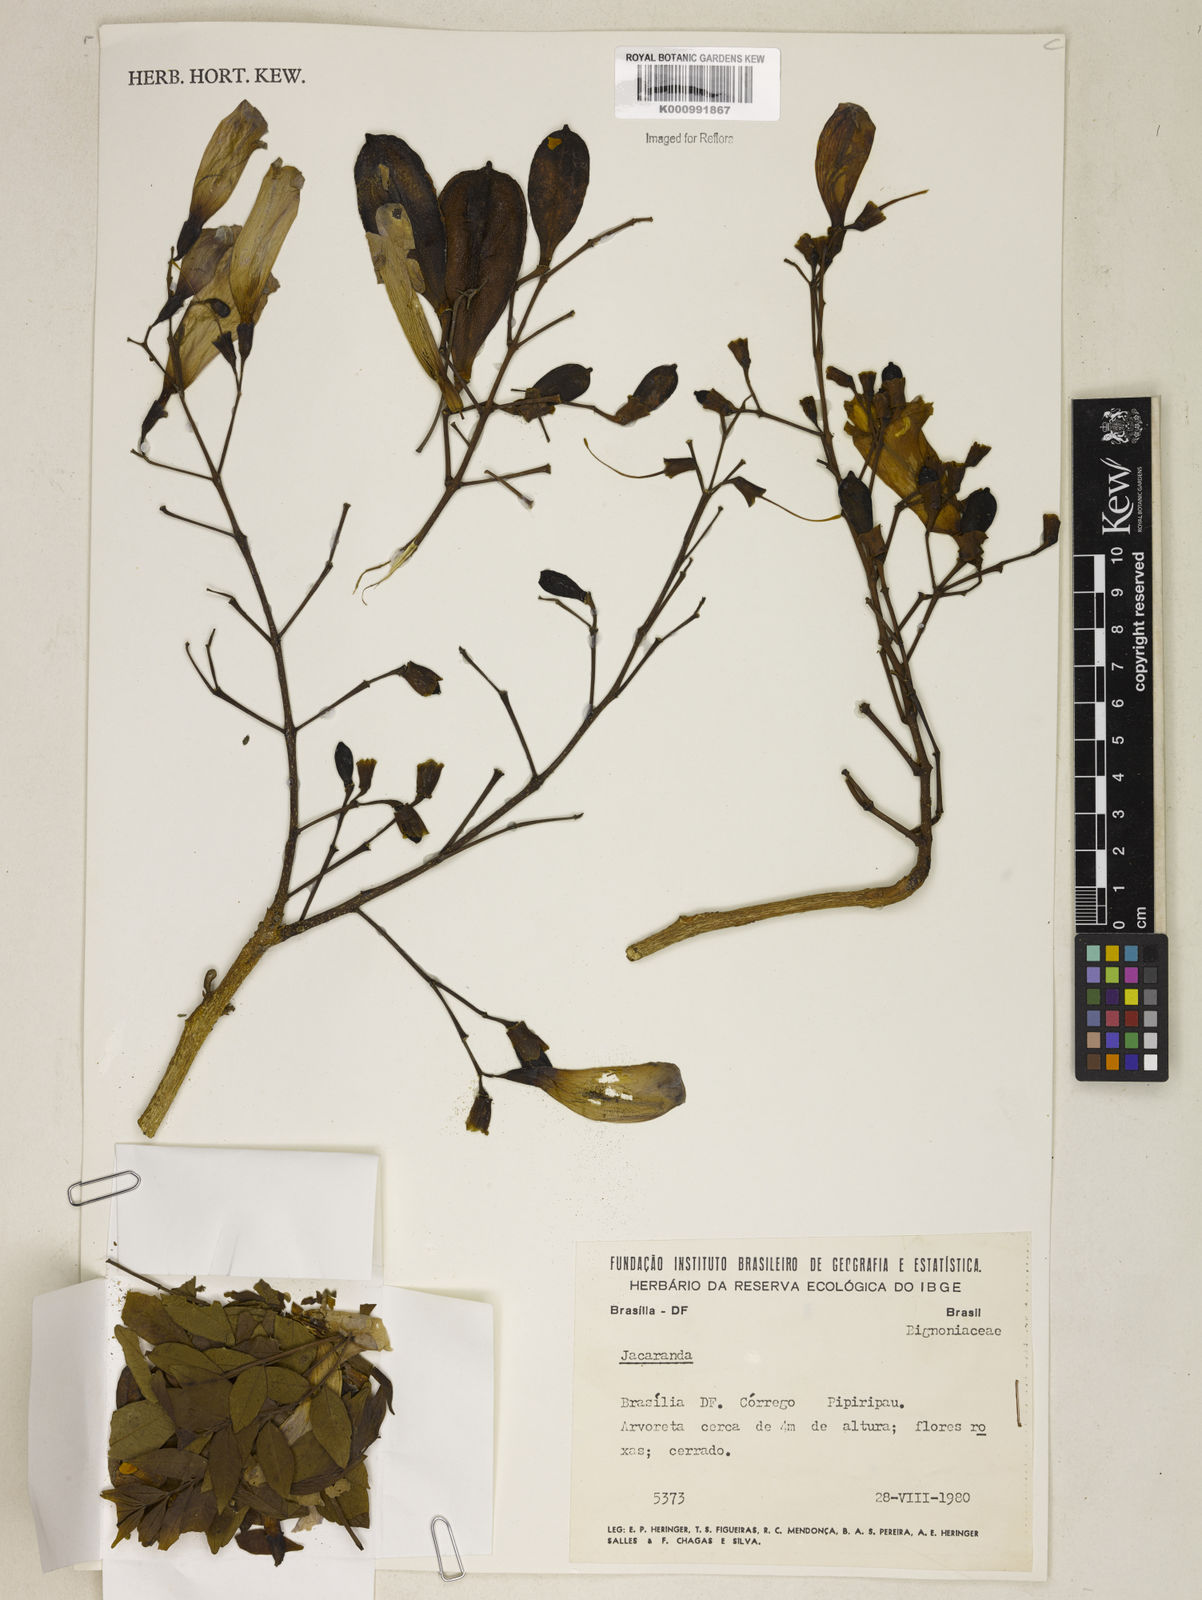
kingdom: Plantae
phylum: Tracheophyta
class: Magnoliopsida
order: Lamiales
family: Bignoniaceae
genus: Jacaranda
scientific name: Jacaranda
